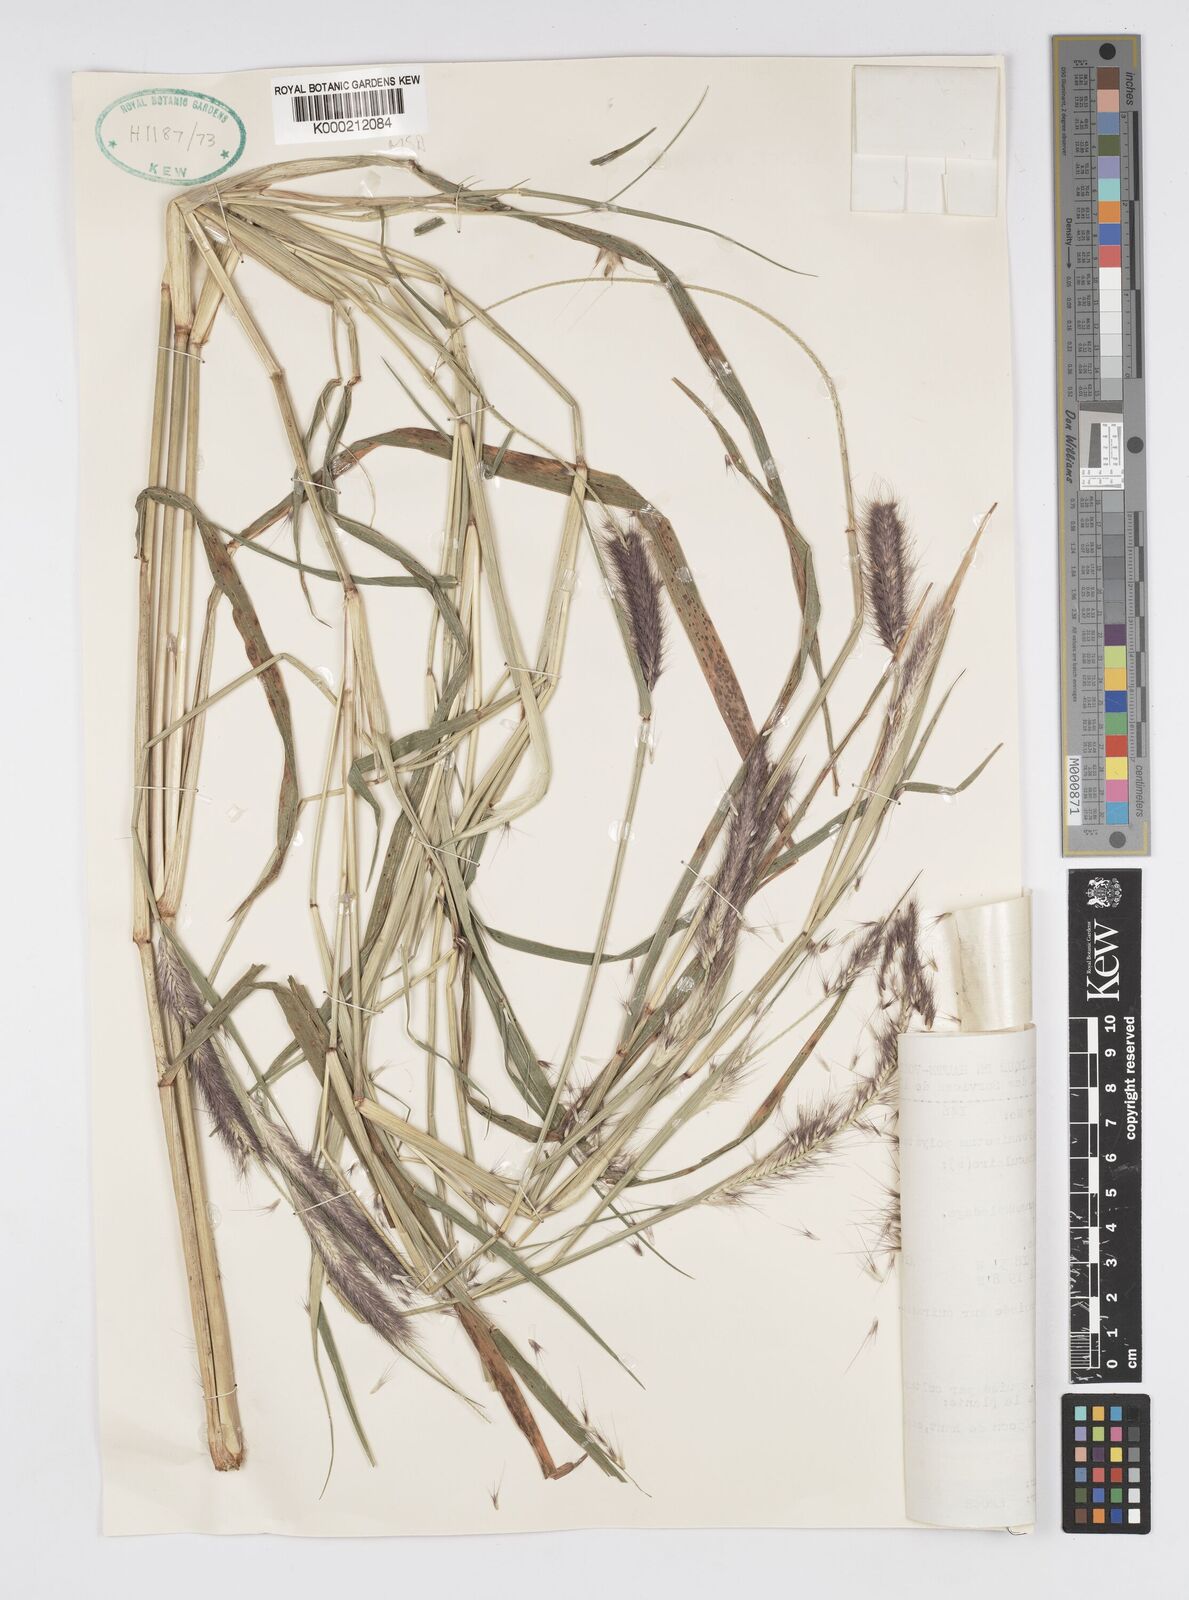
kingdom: Plantae
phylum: Tracheophyta
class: Liliopsida
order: Poales
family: Poaceae
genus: Setaria
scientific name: Setaria parviflora
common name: Knotroot bristle-grass
